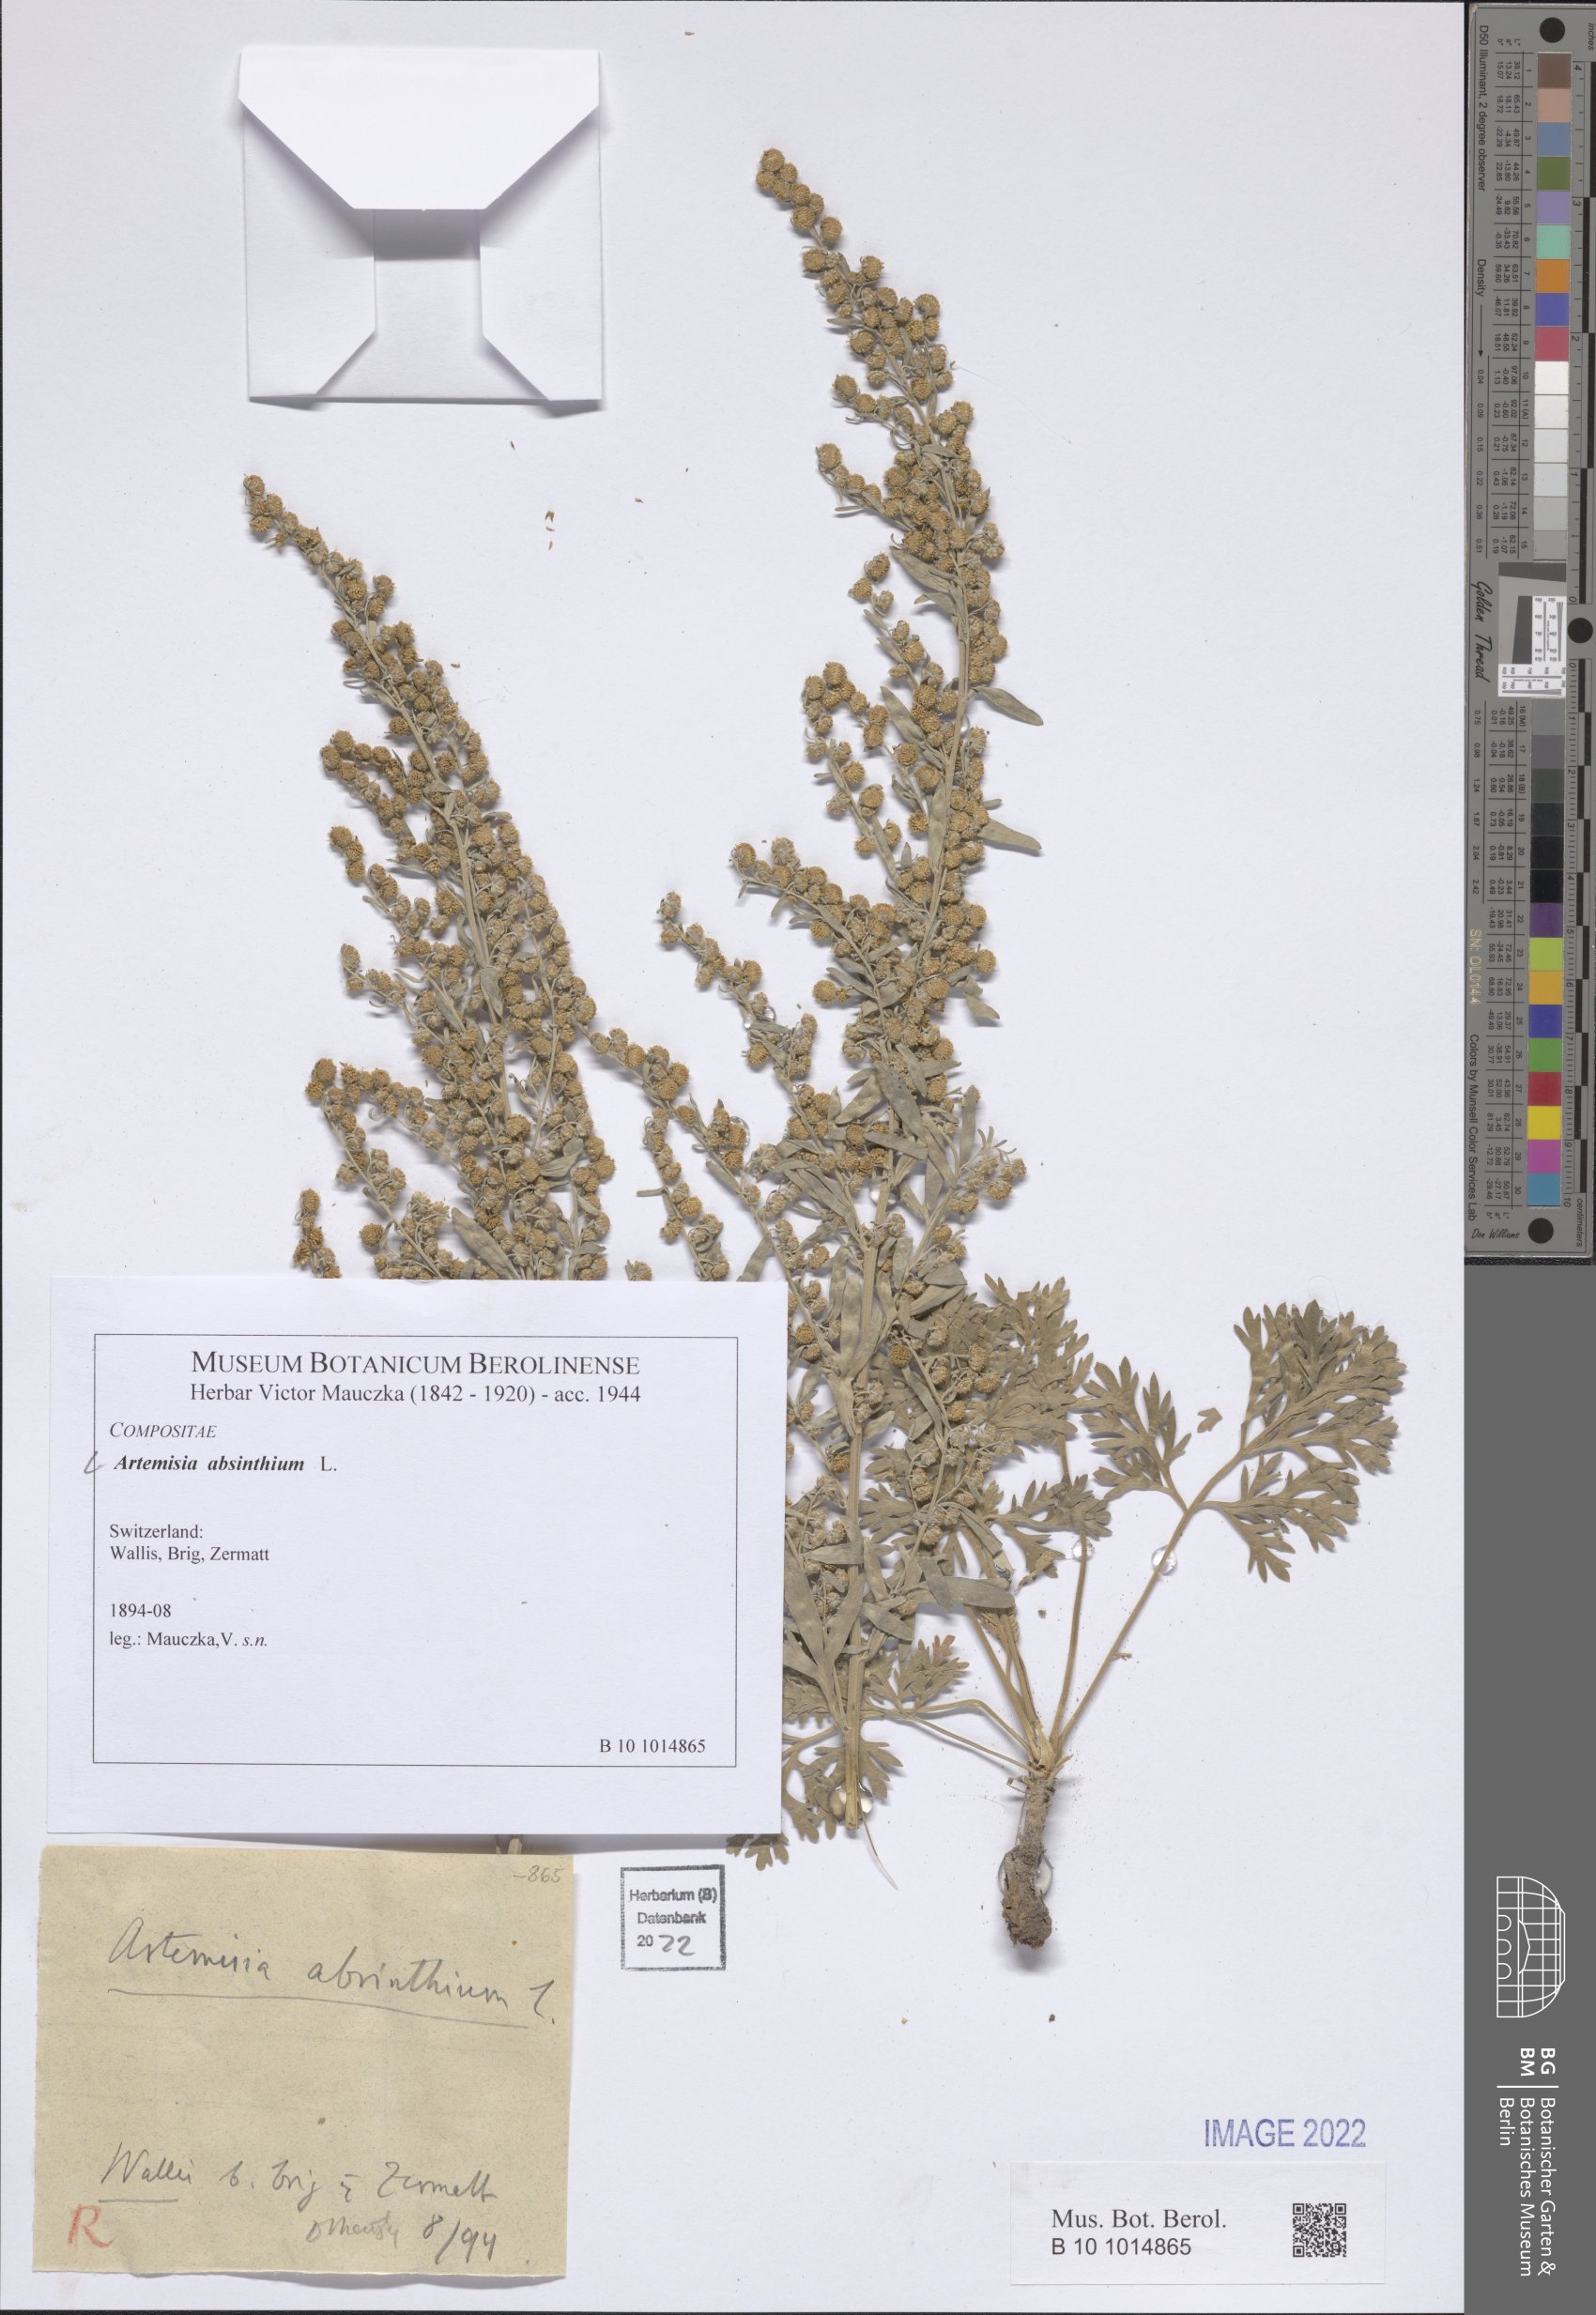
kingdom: Plantae
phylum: Tracheophyta
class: Magnoliopsida
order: Asterales
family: Asteraceae
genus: Artemisia
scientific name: Artemisia absinthium
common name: Wormwood
